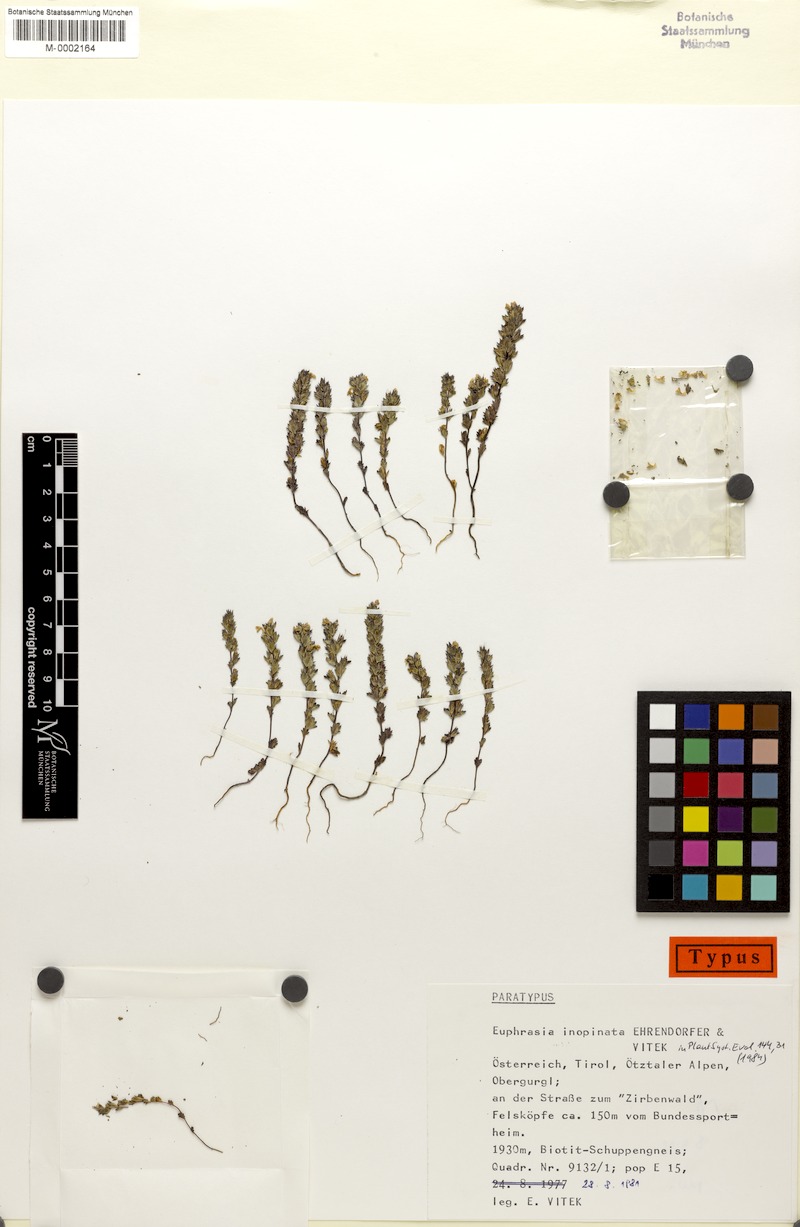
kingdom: Plantae
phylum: Tracheophyta
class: Magnoliopsida
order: Lamiales
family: Orobanchaceae
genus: Euphrasia
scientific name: Euphrasia inopinata
